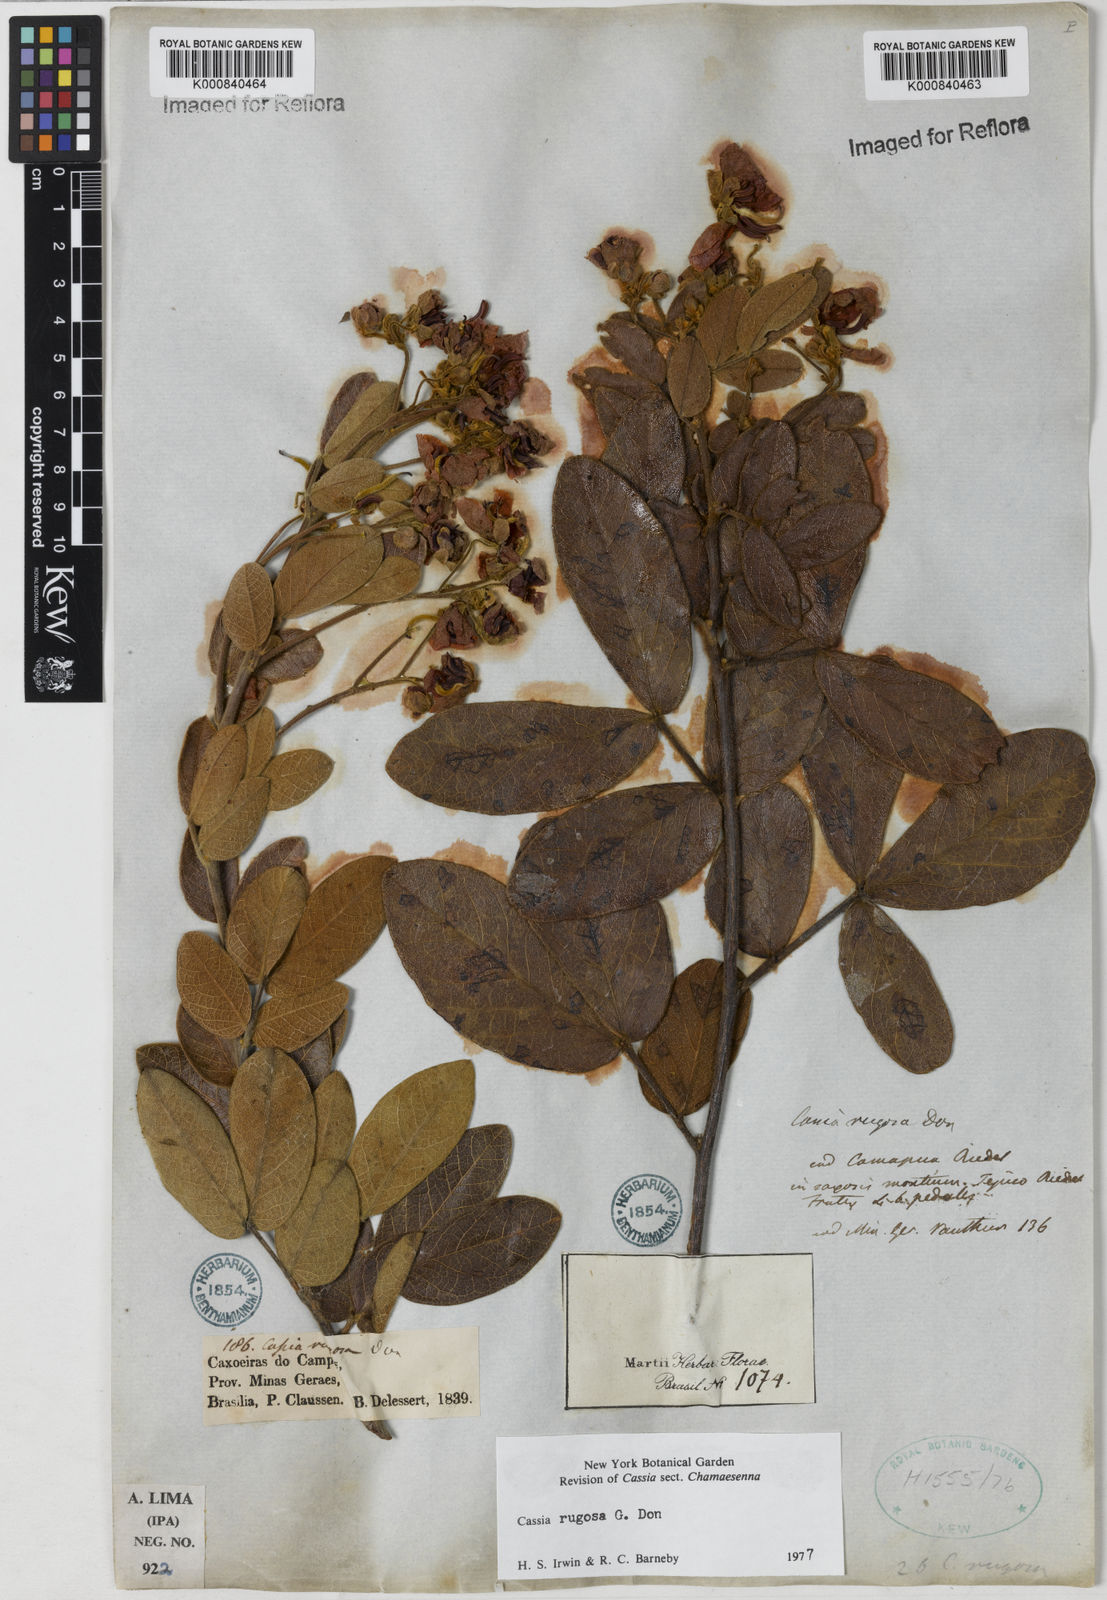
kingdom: Plantae
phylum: Tracheophyta
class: Magnoliopsida
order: Fabales
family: Fabaceae
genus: Senna
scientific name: Senna rugosa
